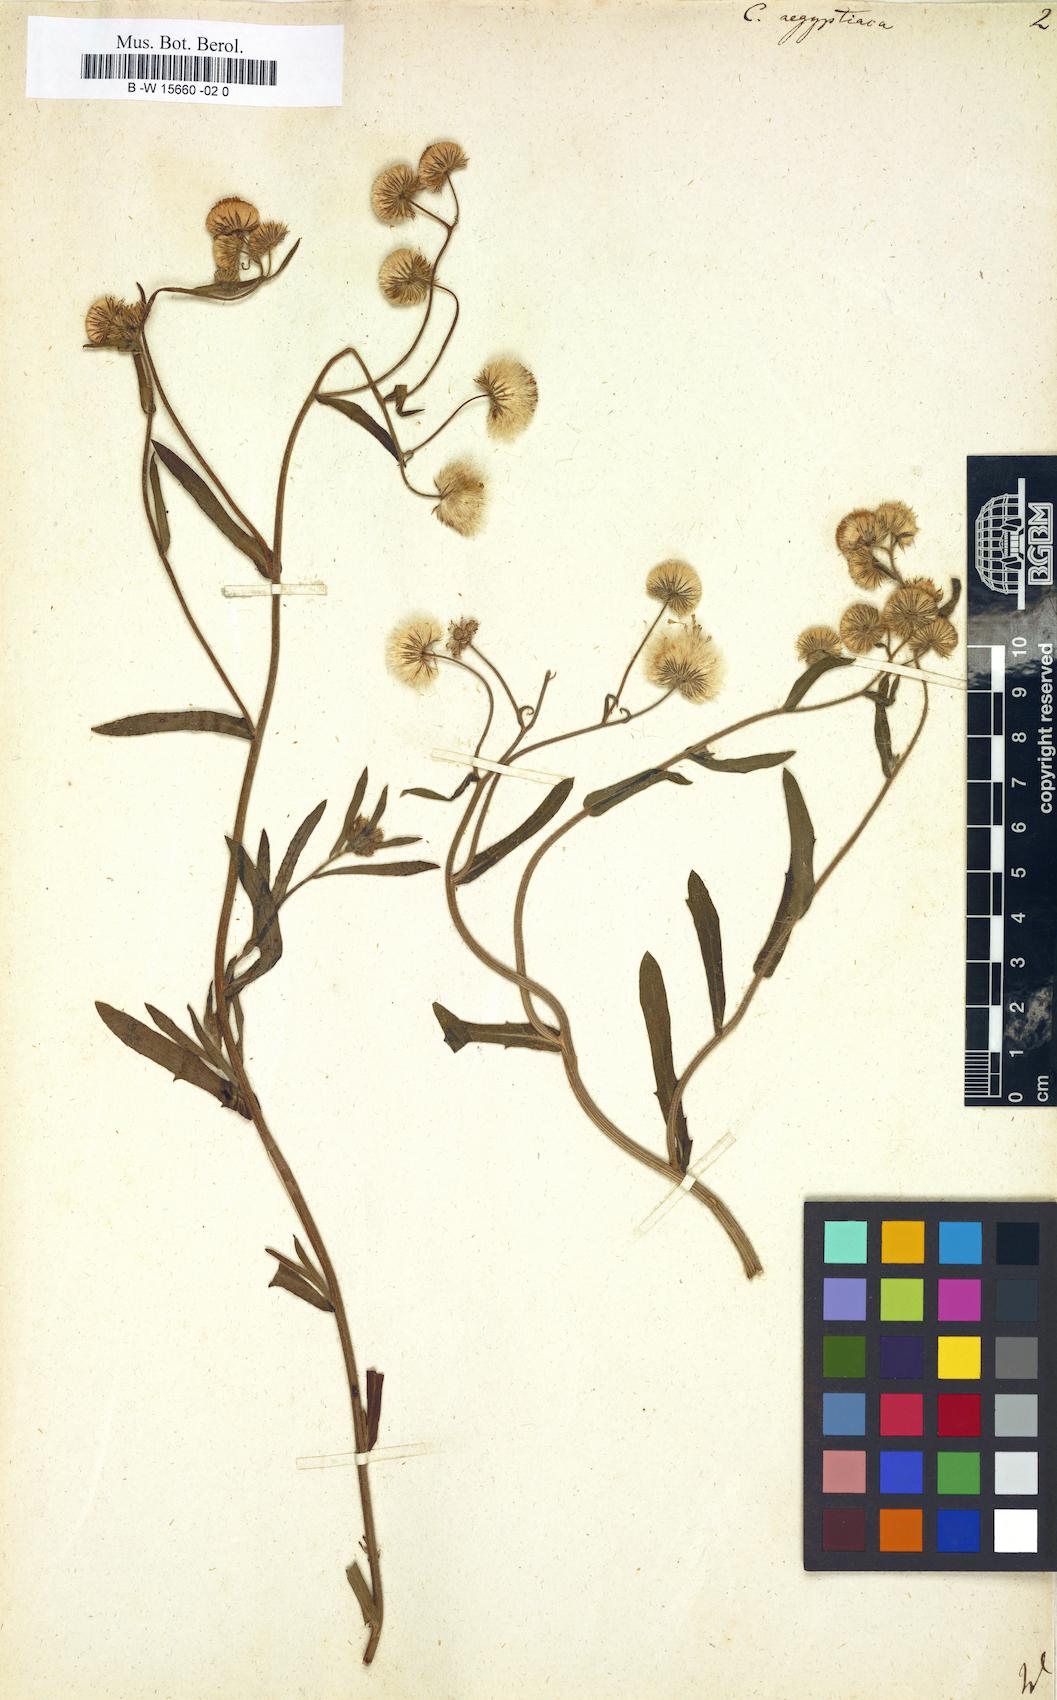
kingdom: Plantae
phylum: Tracheophyta
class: Magnoliopsida
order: Asterales
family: Asteraceae
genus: Nidorella
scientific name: Nidorella aegyptiaca
